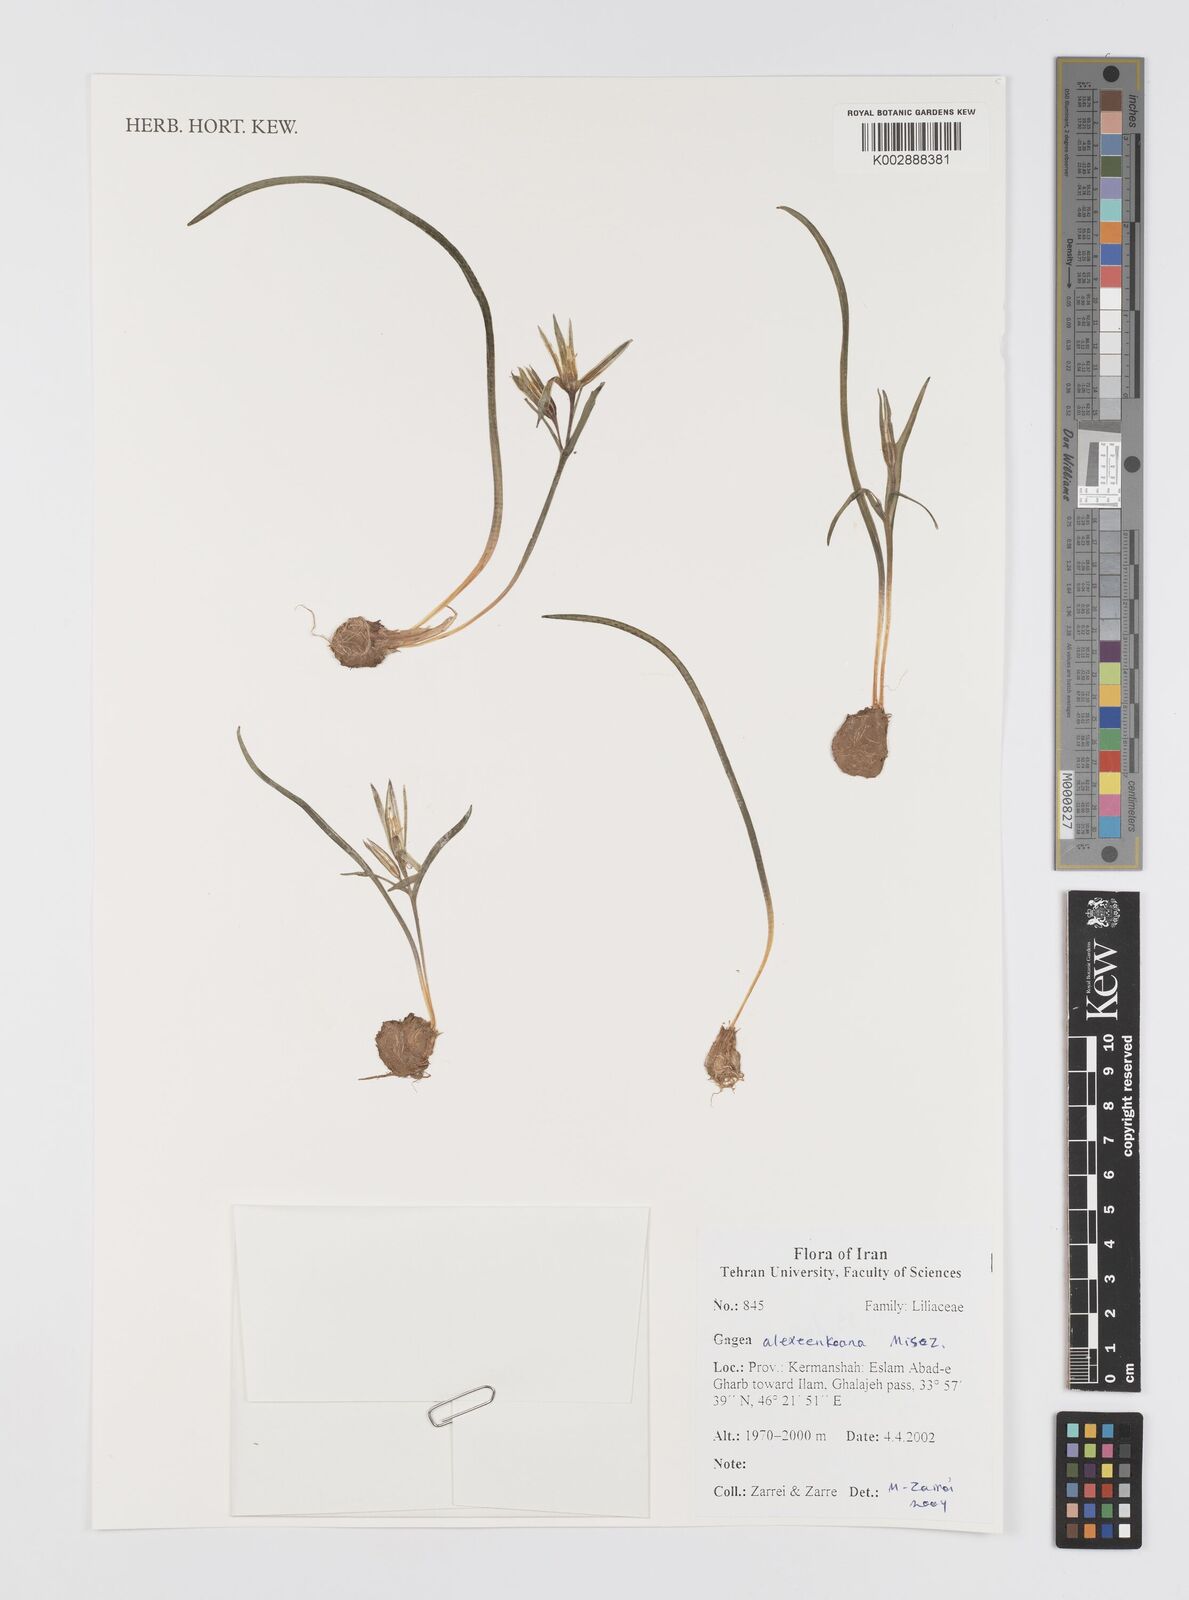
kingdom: Plantae
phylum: Tracheophyta
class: Liliopsida
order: Liliales
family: Liliaceae
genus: Gagea
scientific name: Gagea alexeenkoana
